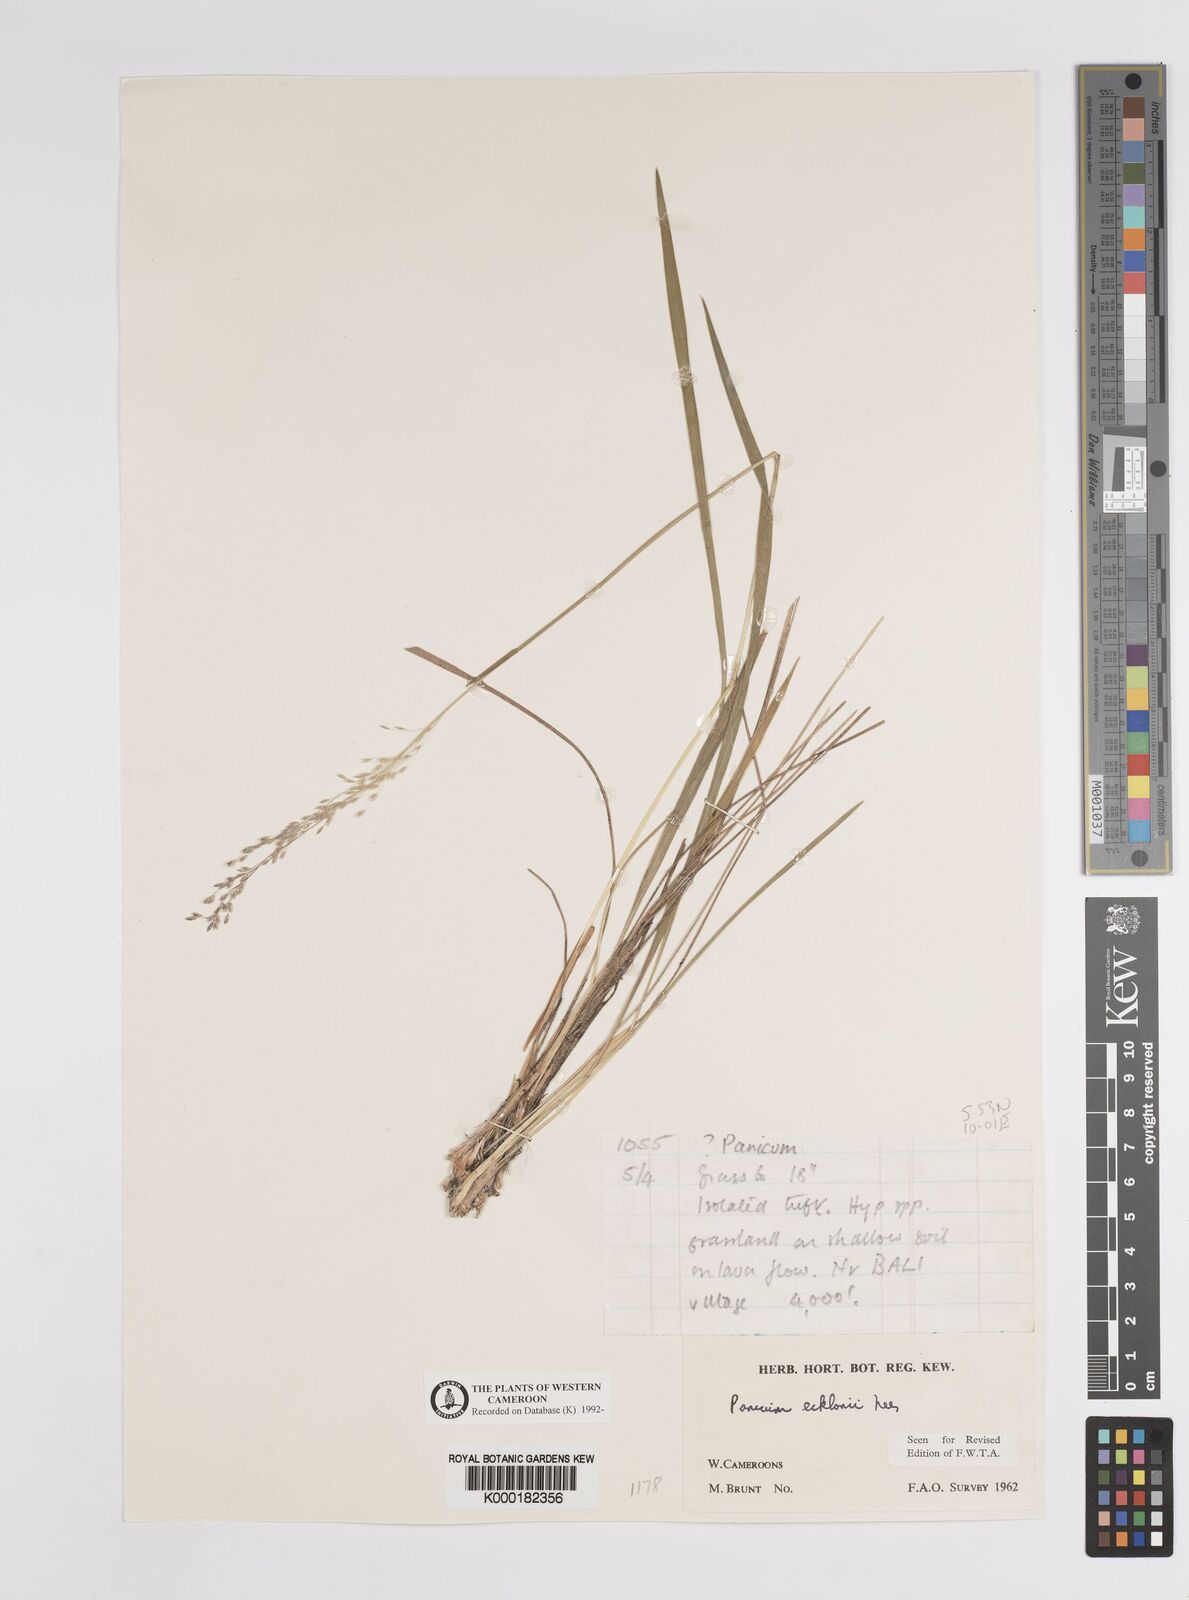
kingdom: Plantae
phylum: Tracheophyta
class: Liliopsida
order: Poales
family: Poaceae
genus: Adenochloa
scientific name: Adenochloa ecklonii
